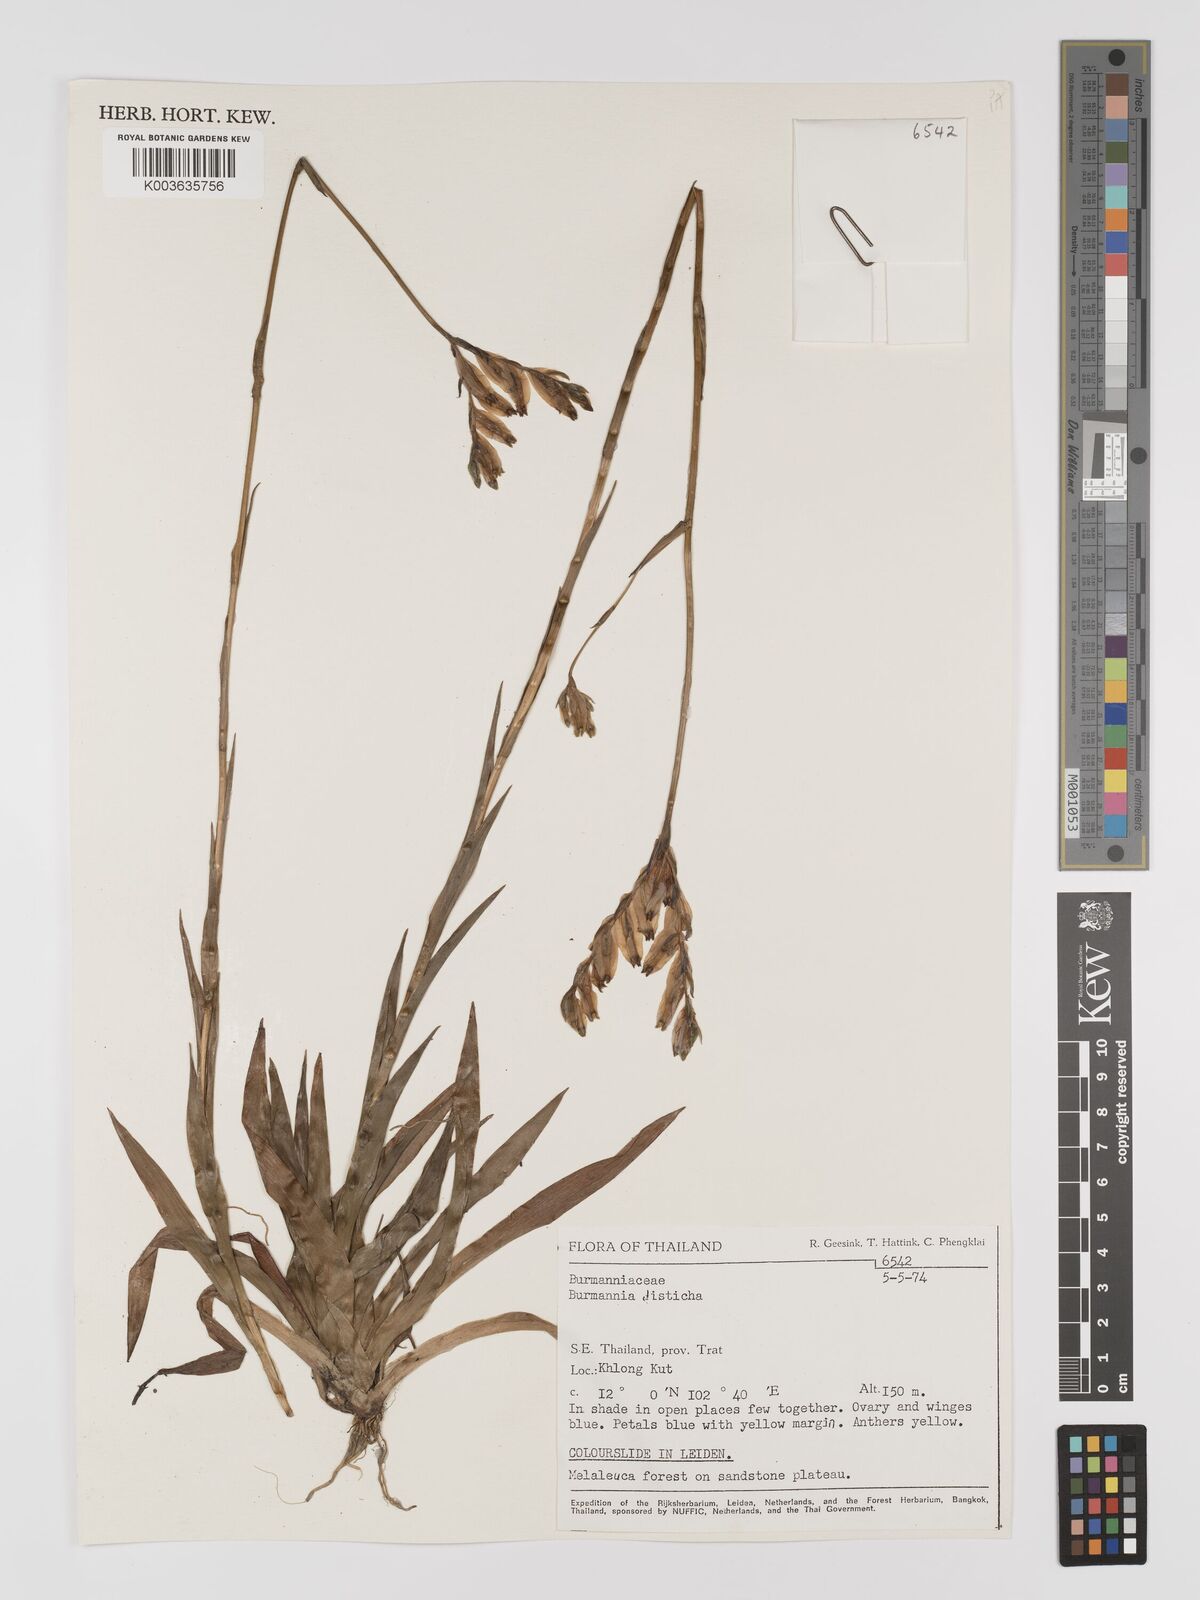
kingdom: Plantae
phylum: Tracheophyta
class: Liliopsida
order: Dioscoreales
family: Burmanniaceae
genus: Burmannia
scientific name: Burmannia disticha
